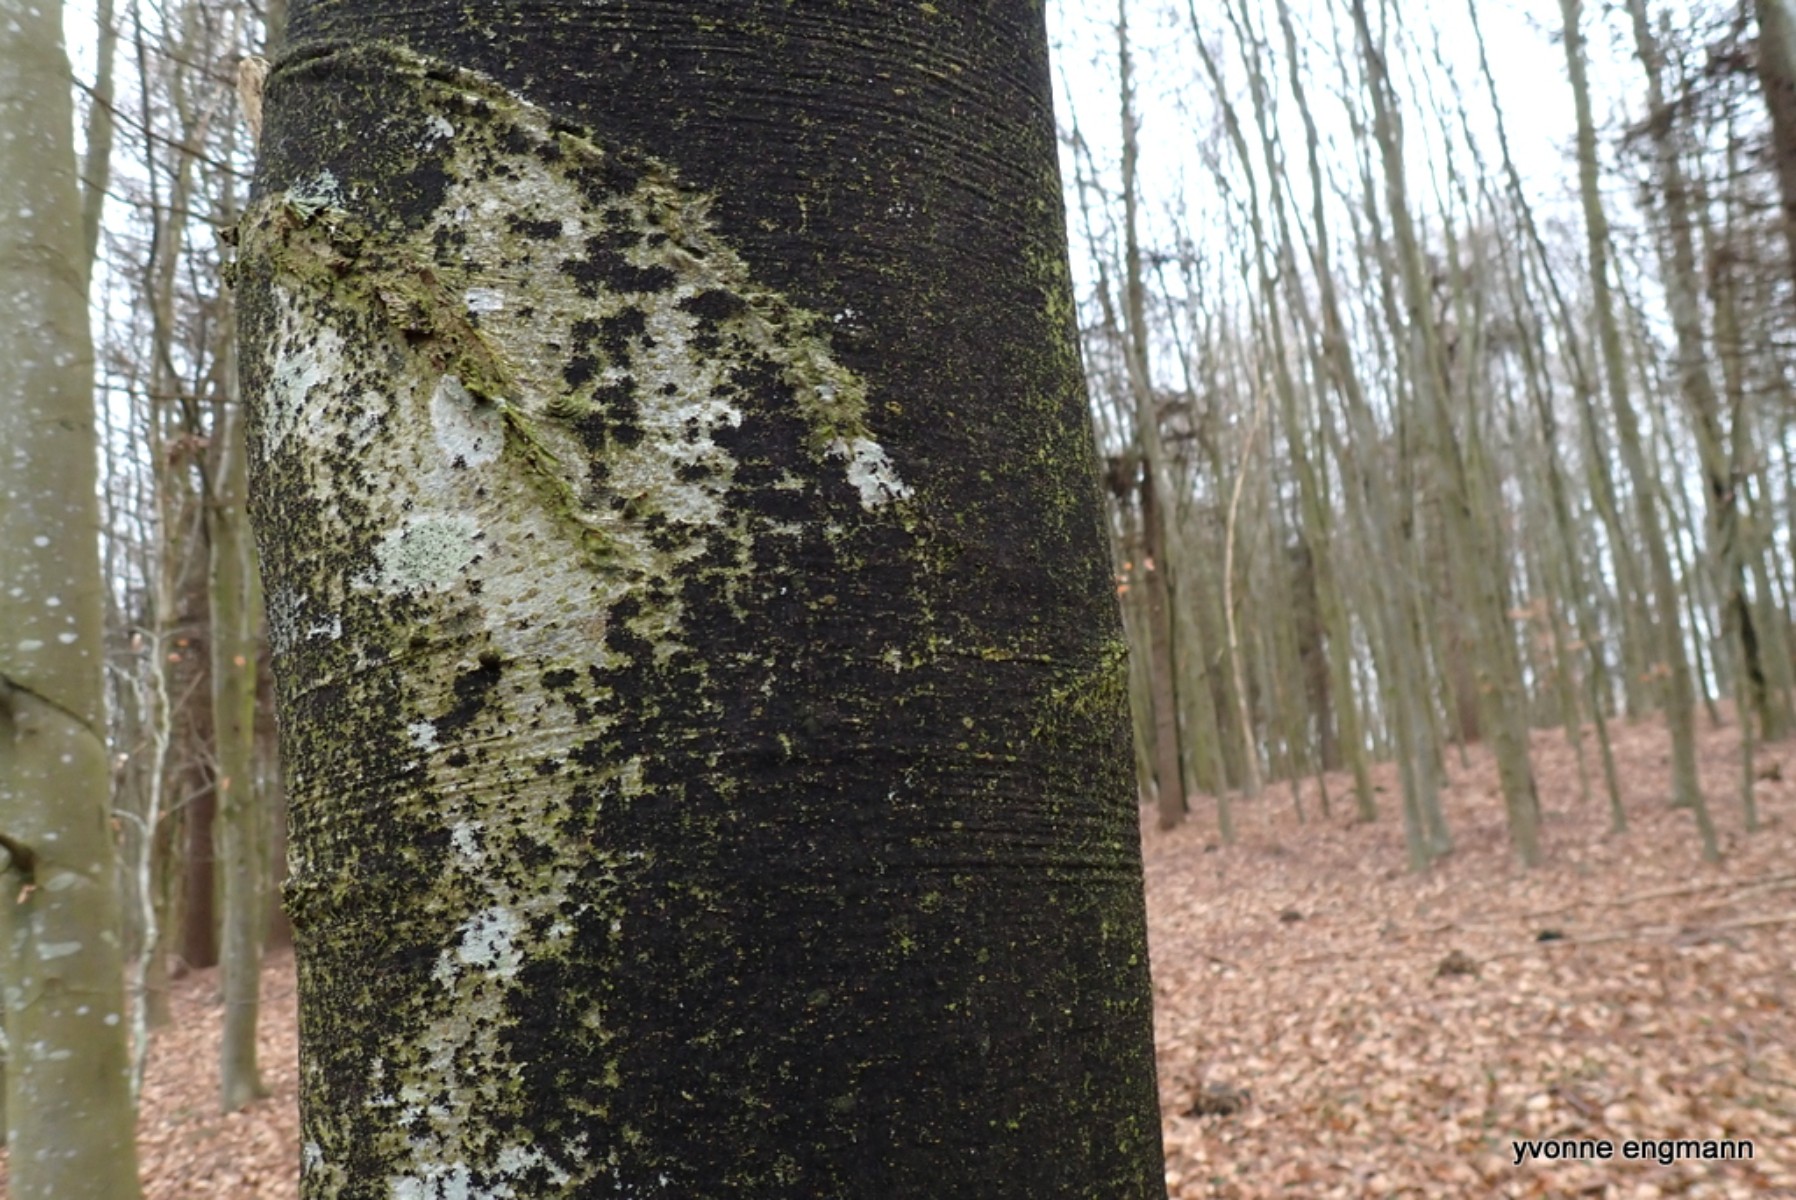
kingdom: Fungi
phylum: Ascomycota
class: Leotiomycetes
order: Rhytismatales
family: Ascodichaenaceae
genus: Ascodichaena
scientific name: Ascodichaena rugosa
